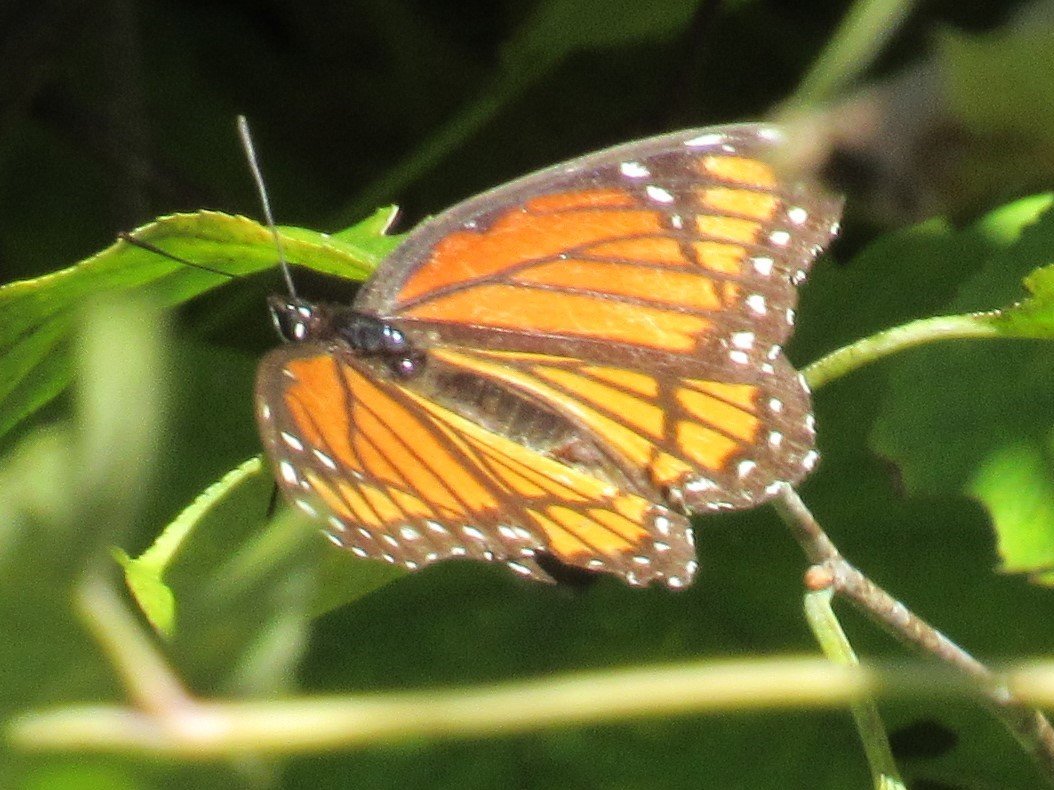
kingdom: Animalia
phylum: Arthropoda
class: Insecta
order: Lepidoptera
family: Nymphalidae
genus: Limenitis
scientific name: Limenitis archippus
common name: Viceroy
